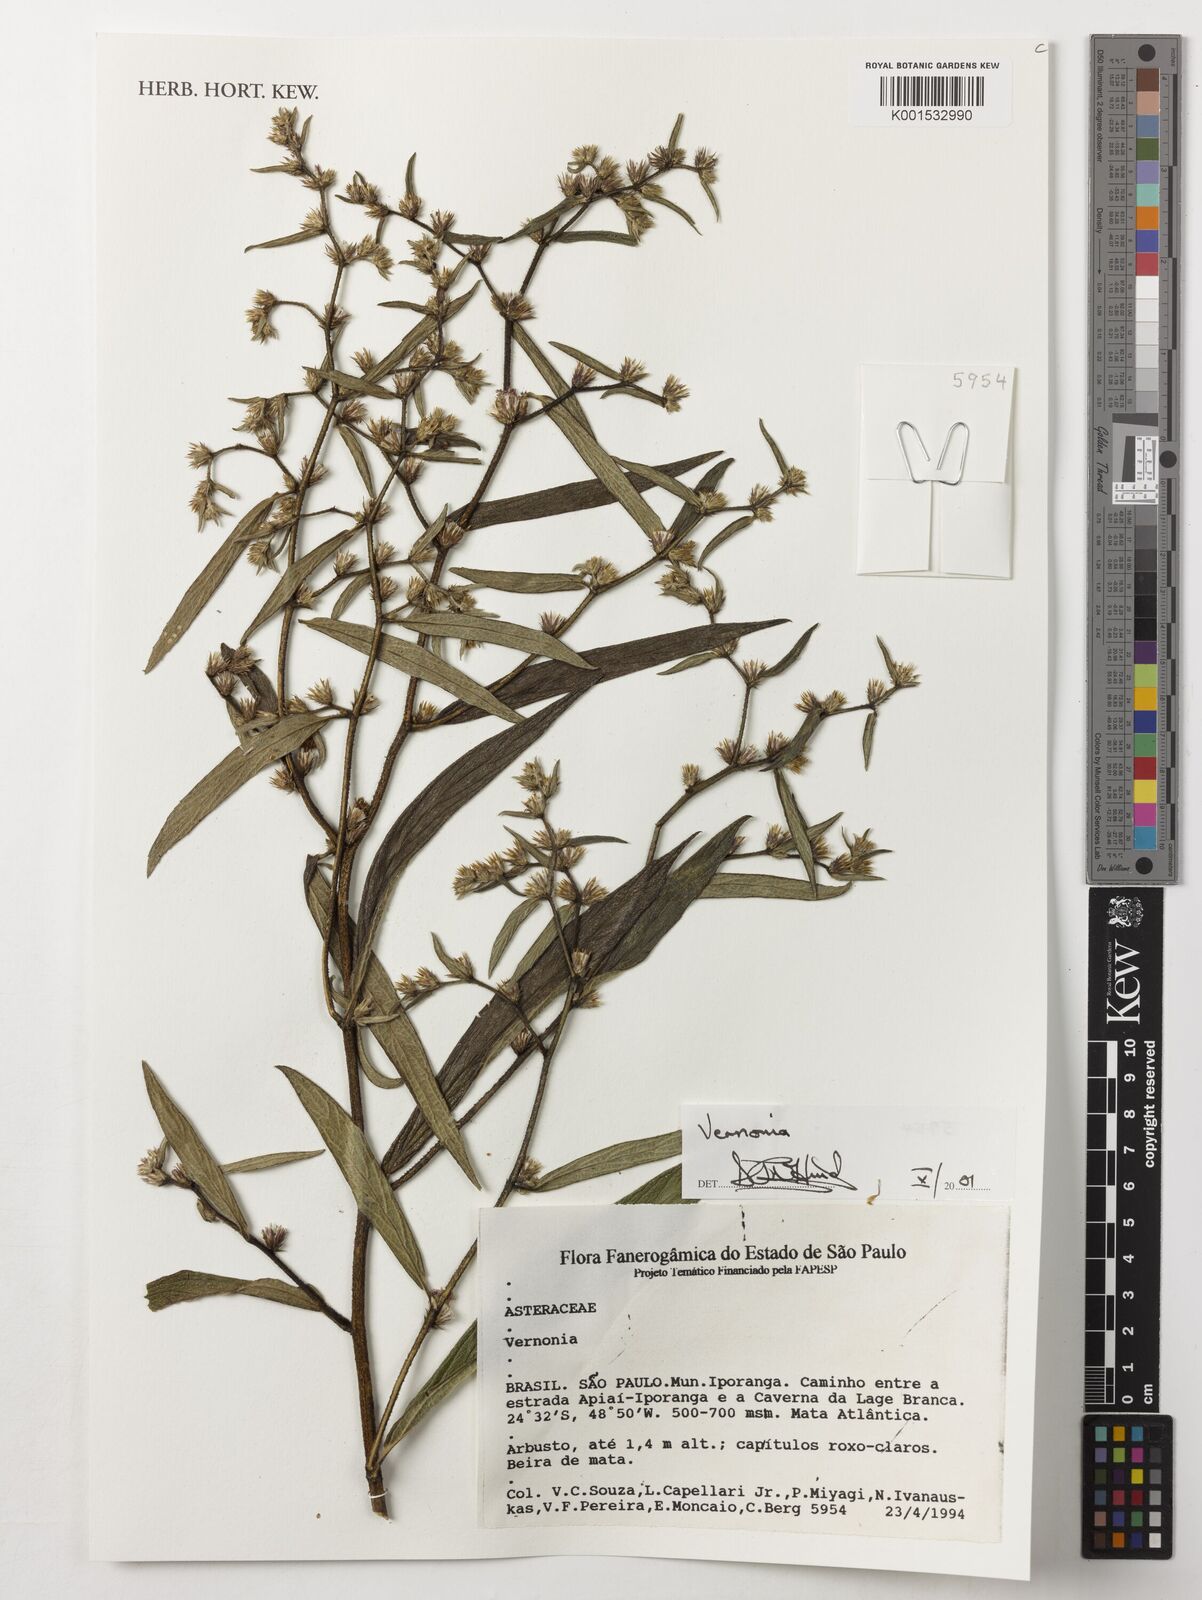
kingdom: Plantae
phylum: Tracheophyta
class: Magnoliopsida
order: Asterales
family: Asteraceae
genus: Vernonia
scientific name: Vernonia
